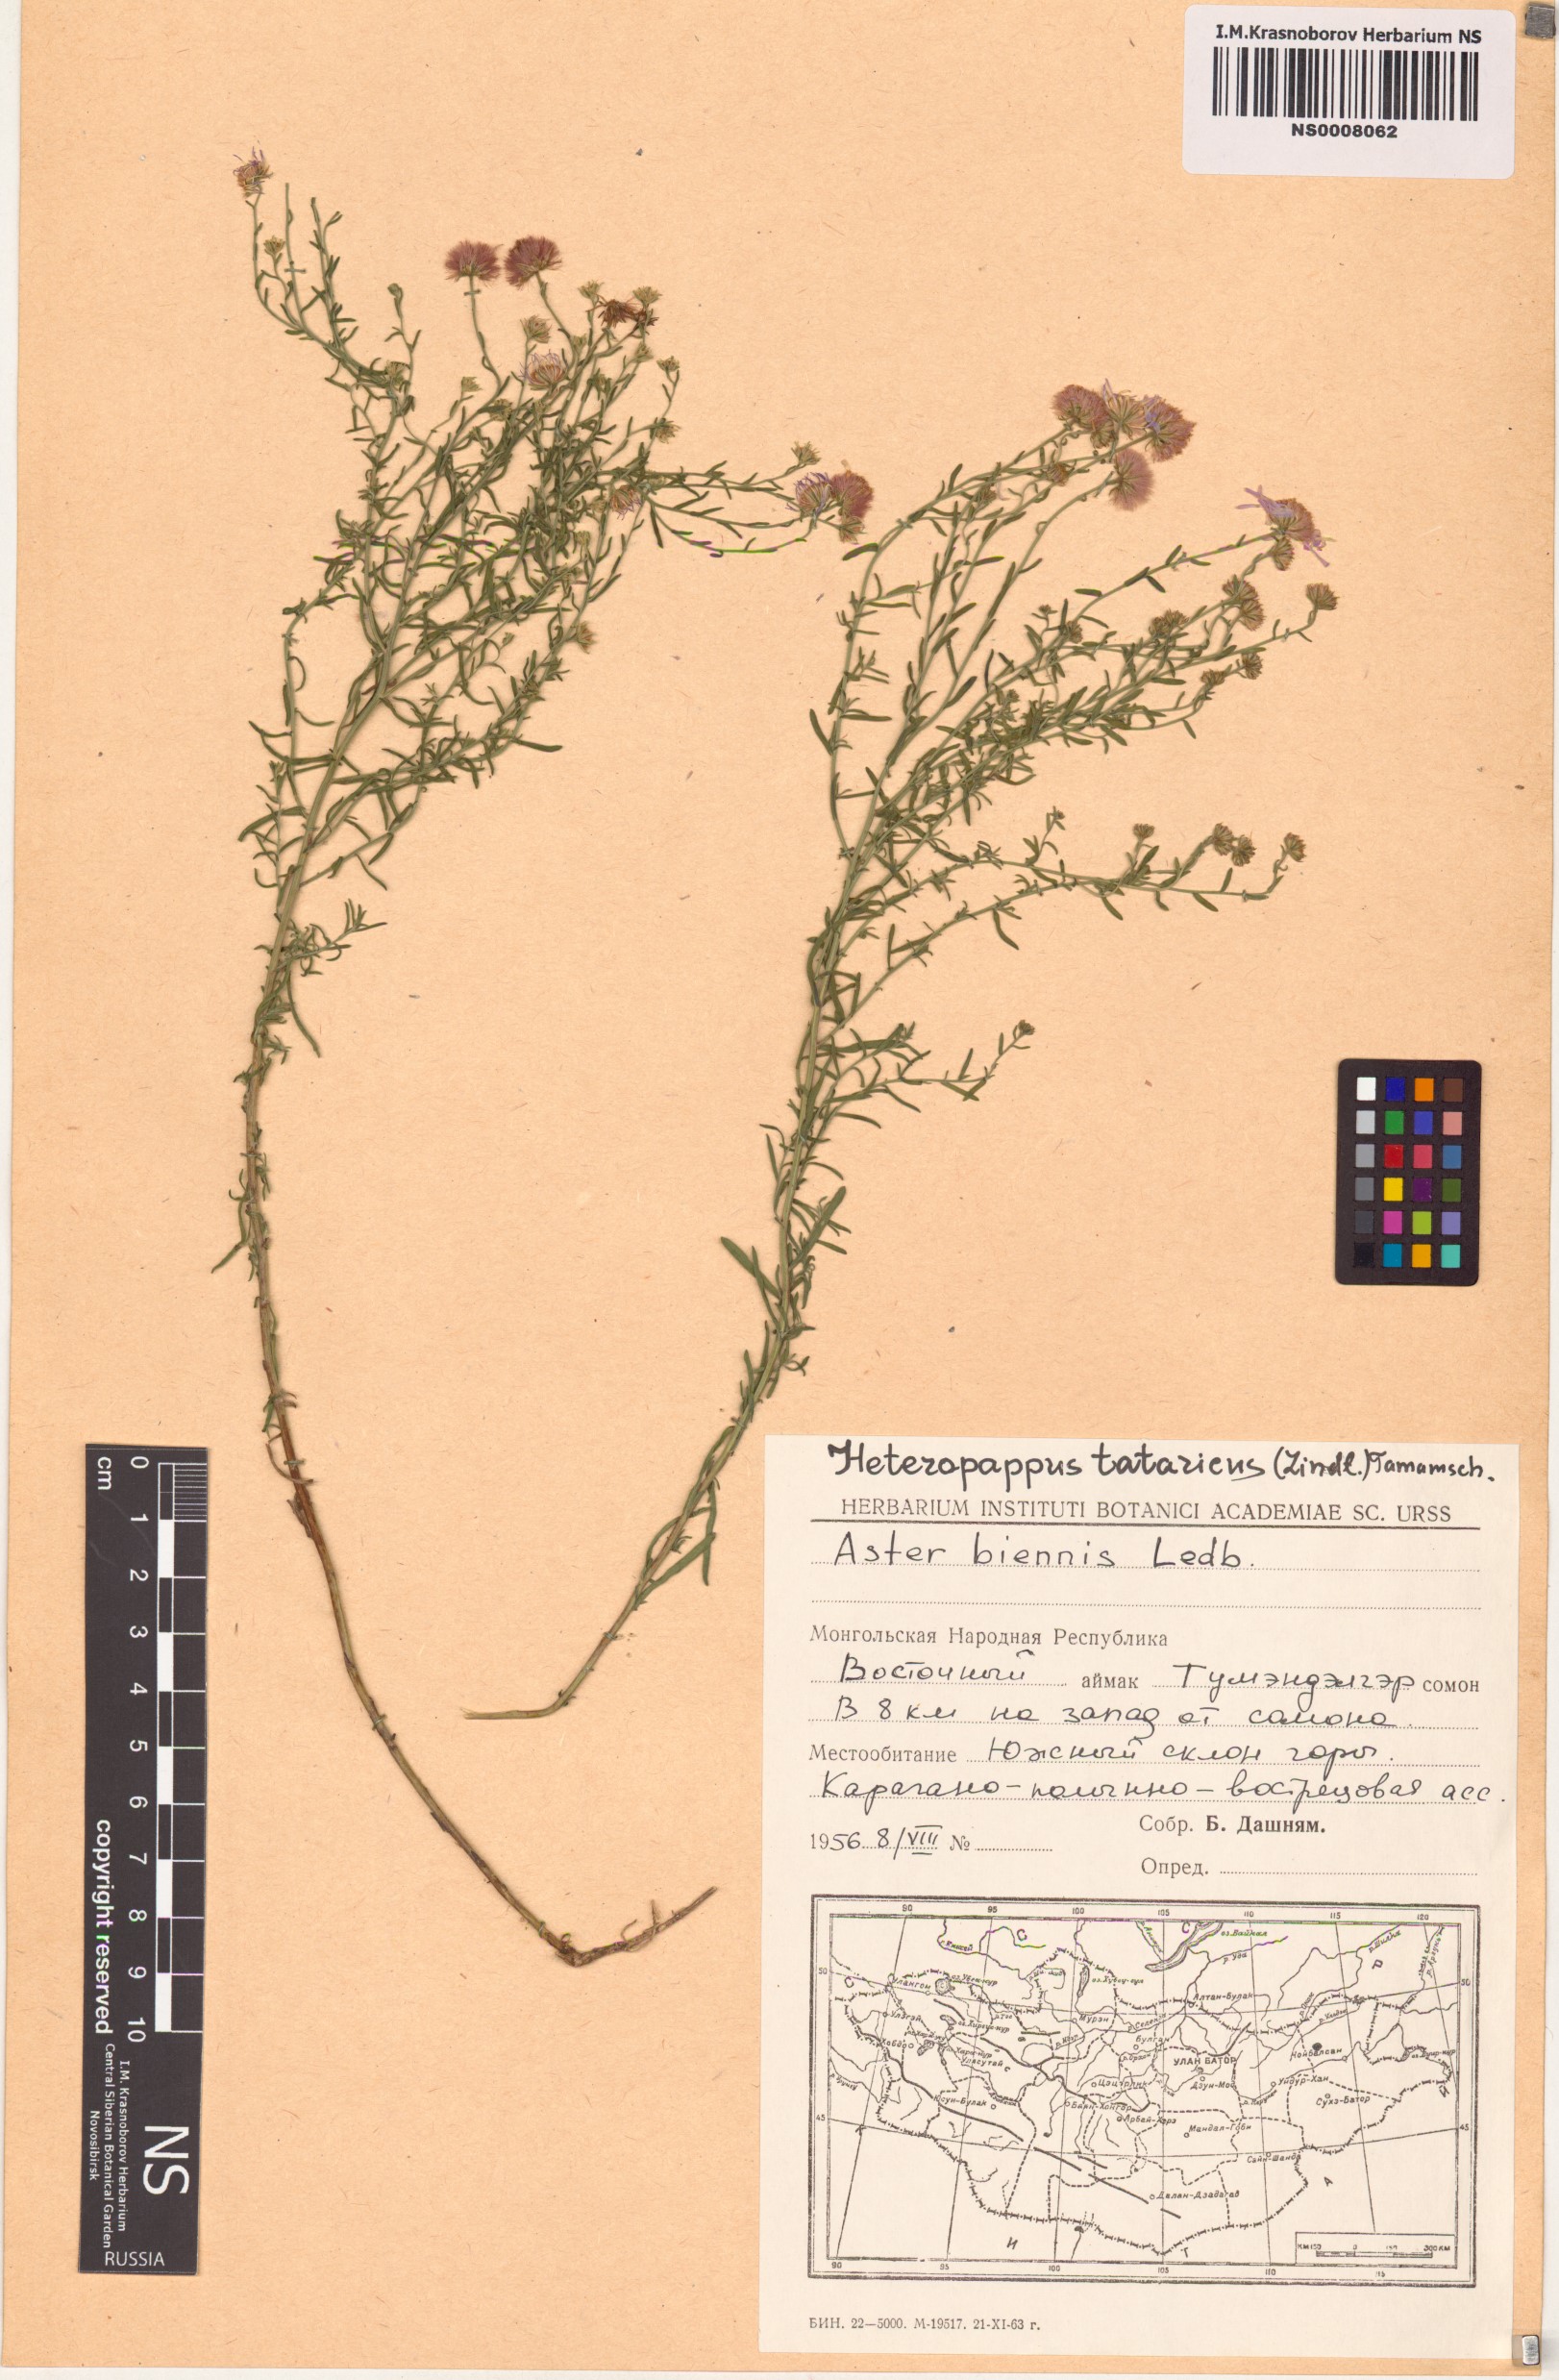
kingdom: Plantae
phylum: Tracheophyta
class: Magnoliopsida
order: Asterales
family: Asteraceae
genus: Heteropappus
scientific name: Heteropappus biennis
